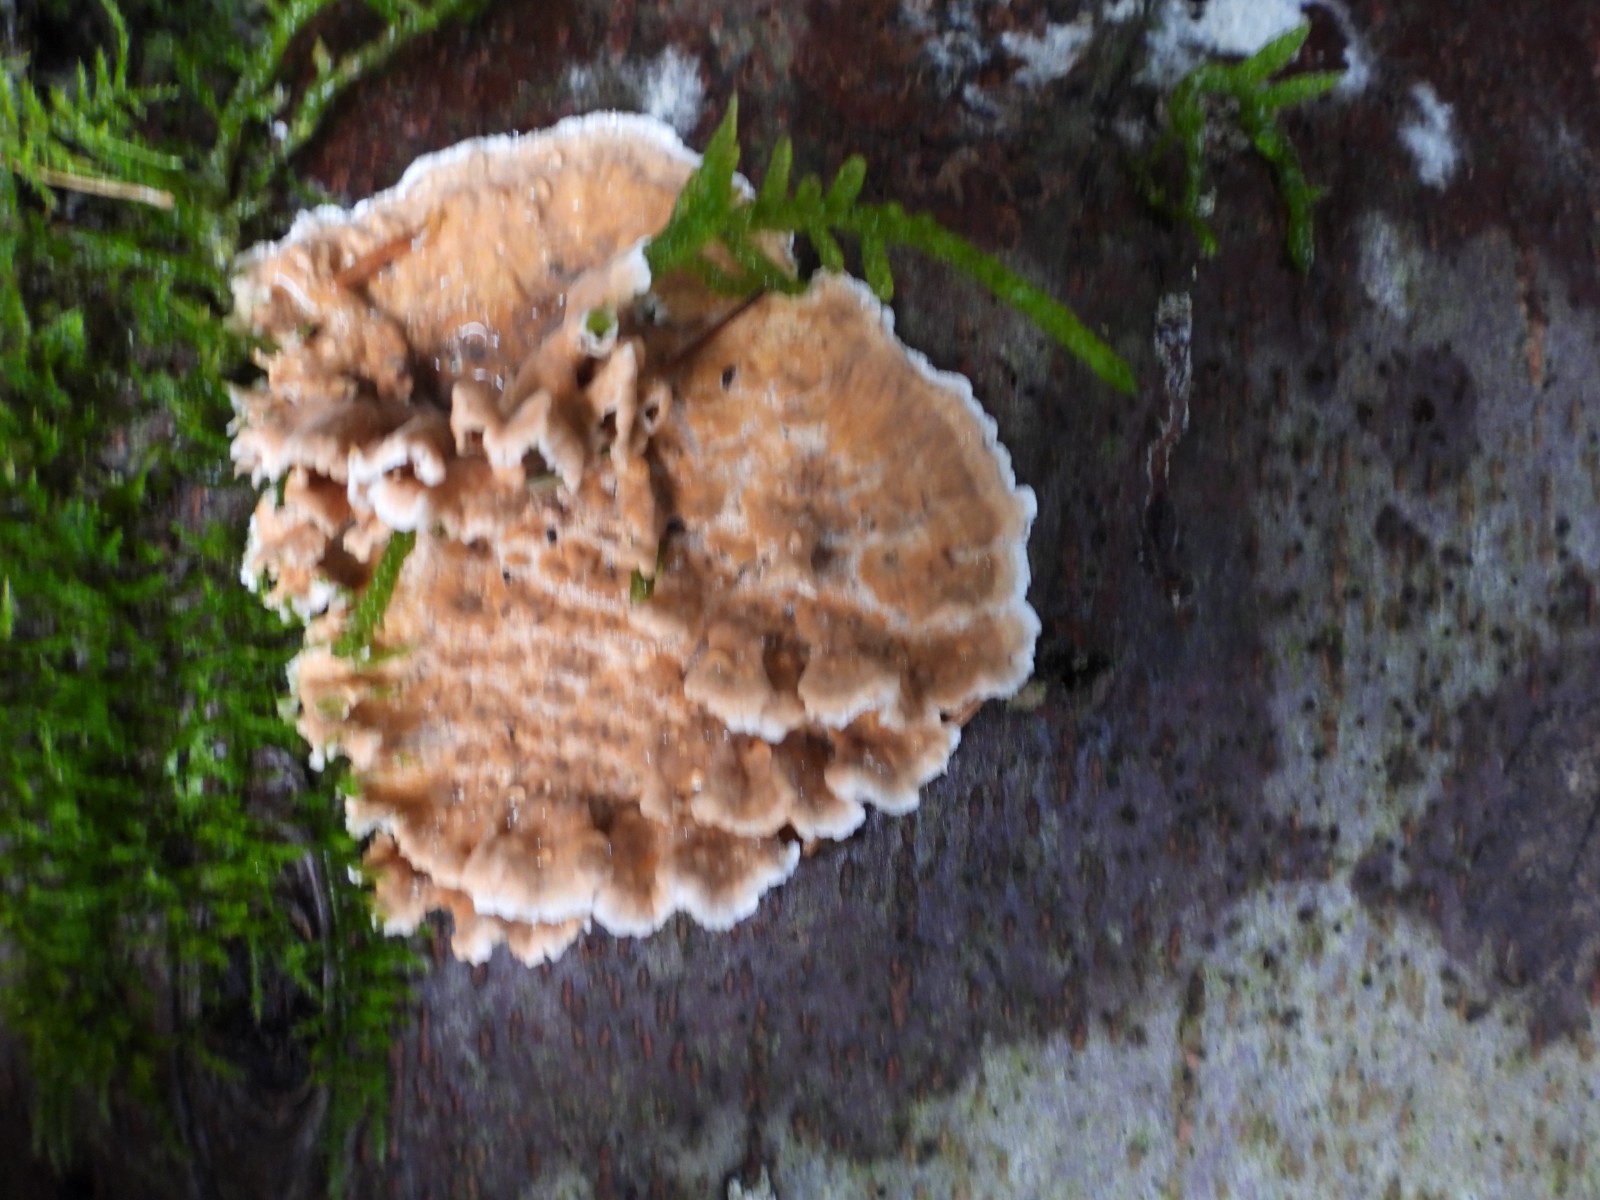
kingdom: Fungi
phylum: Basidiomycota
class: Agaricomycetes
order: Russulales
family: Stereaceae
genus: Stereum
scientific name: Stereum sanguinolentum
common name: blødende lædersvamp
